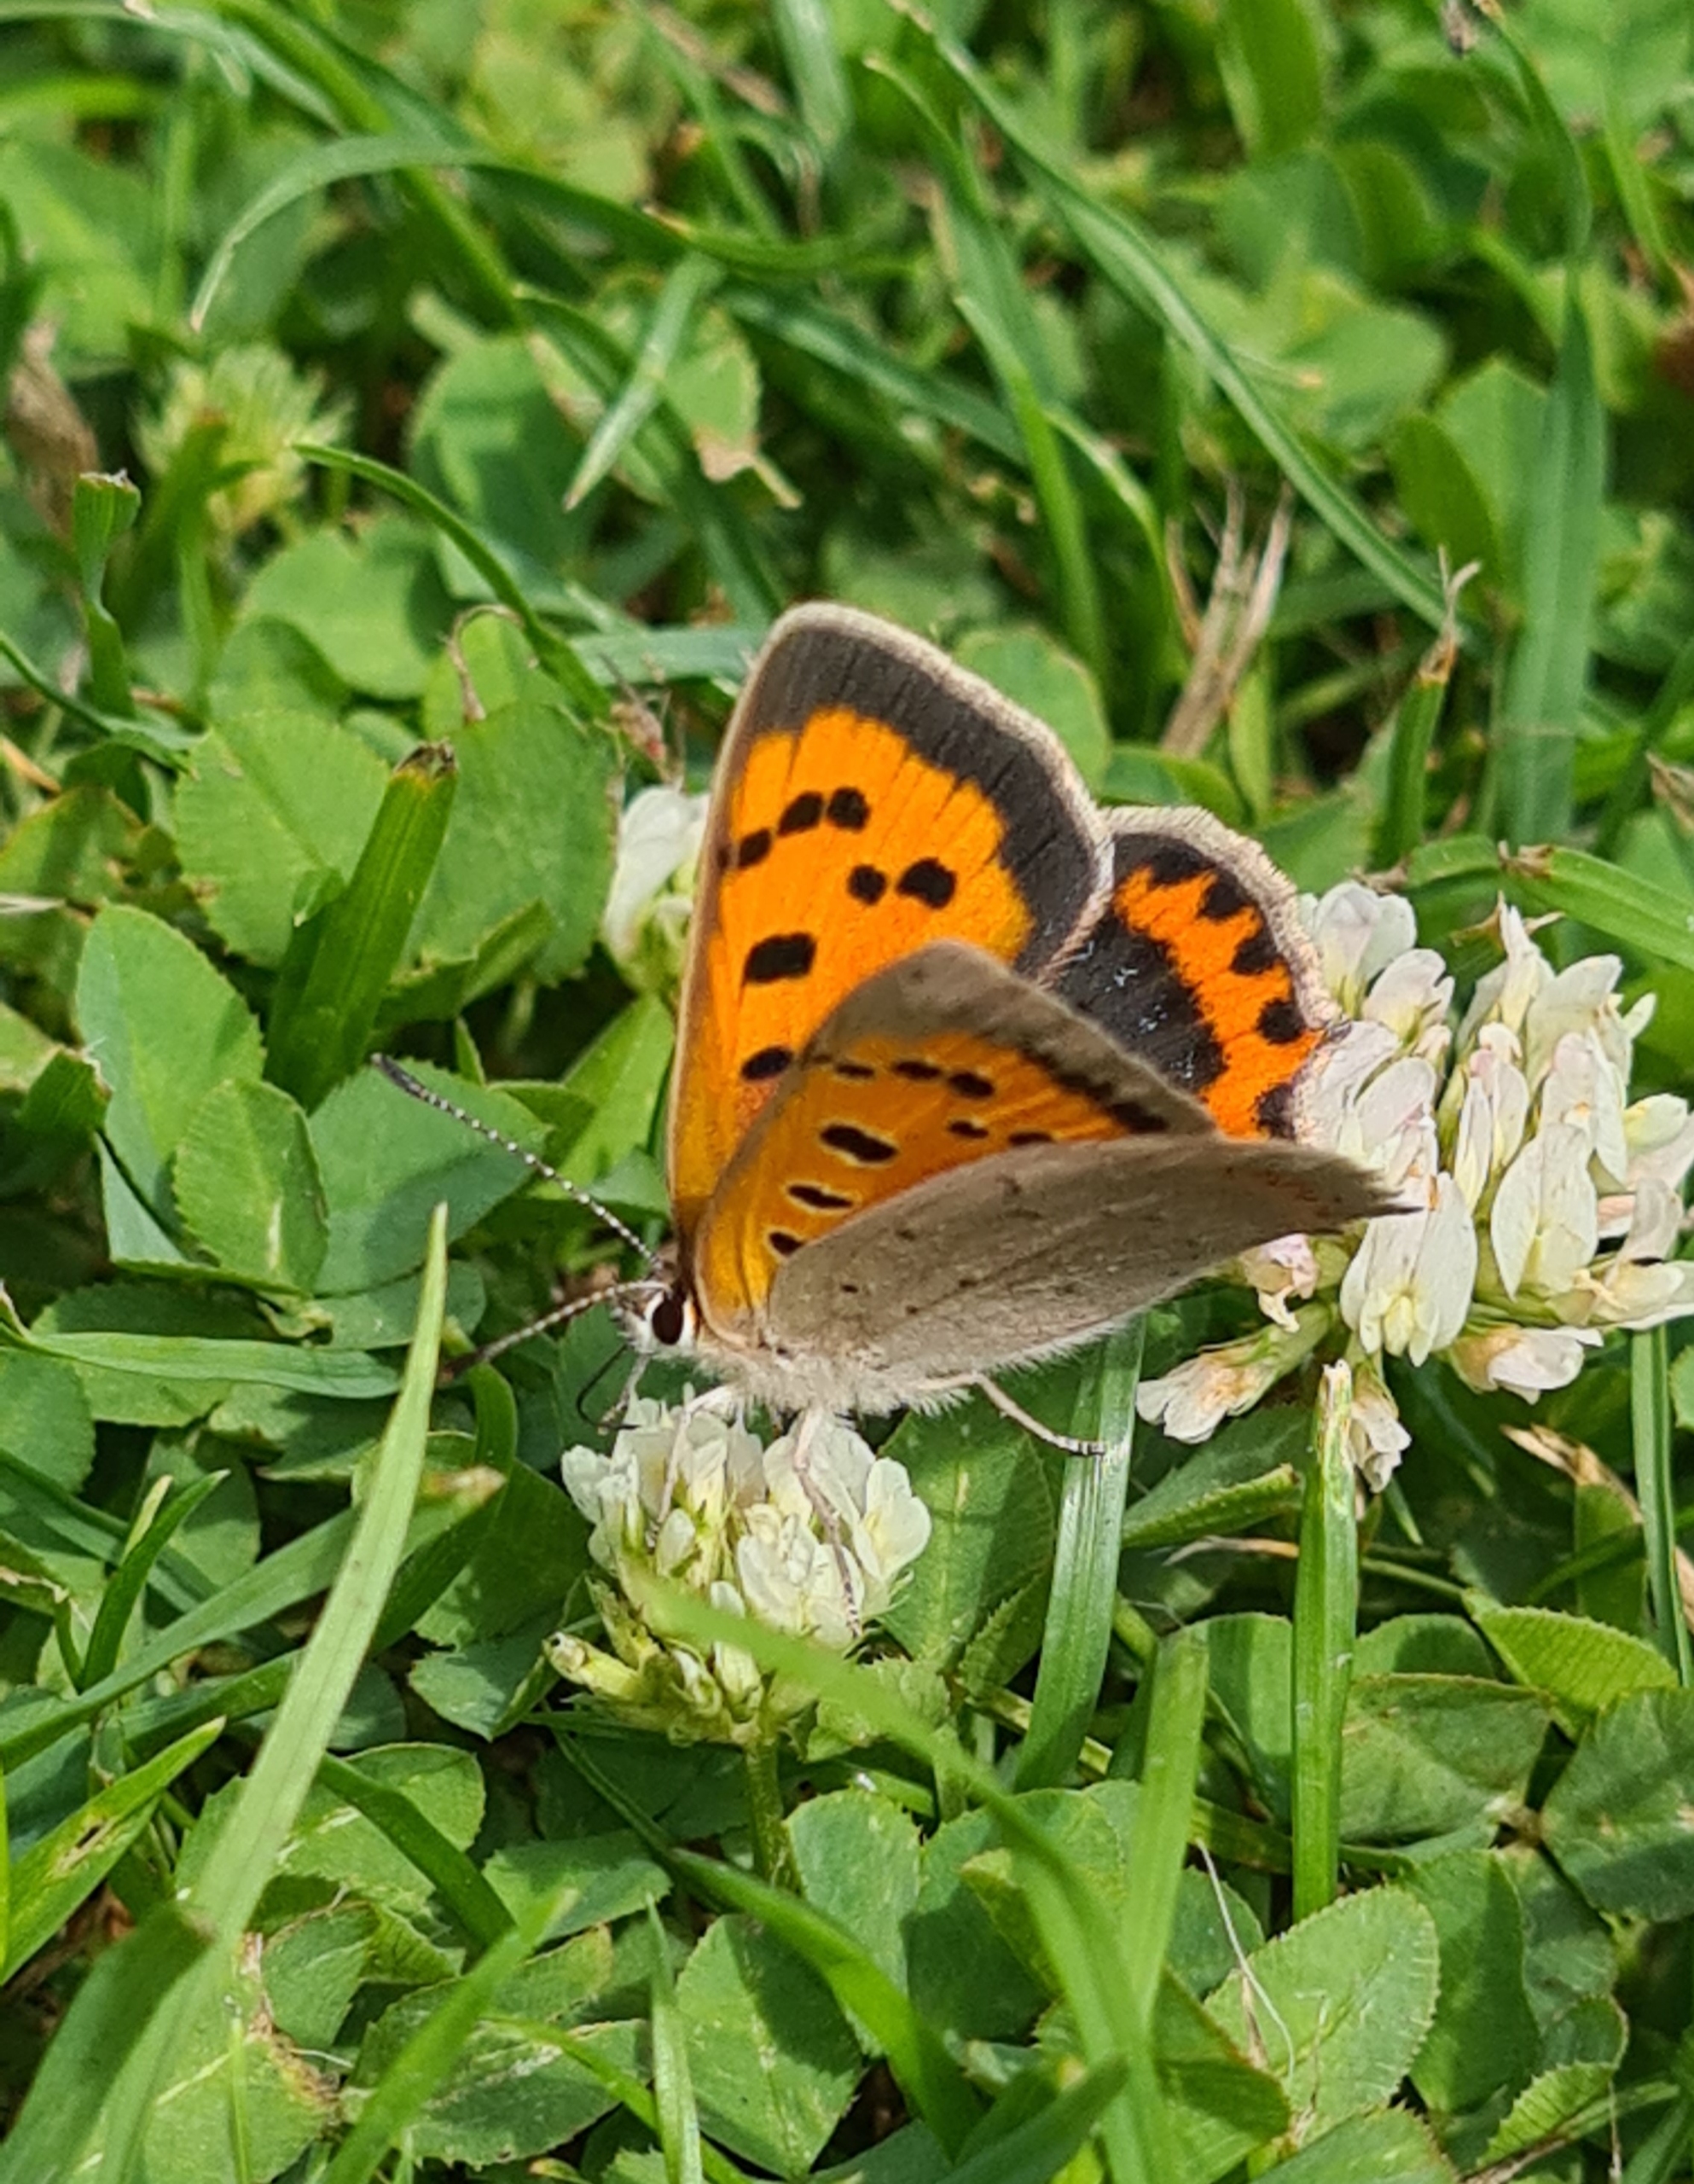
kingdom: Animalia
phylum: Arthropoda
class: Insecta
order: Lepidoptera
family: Lycaenidae
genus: Lycaena
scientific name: Lycaena phlaeas
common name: Lille ildfugl
